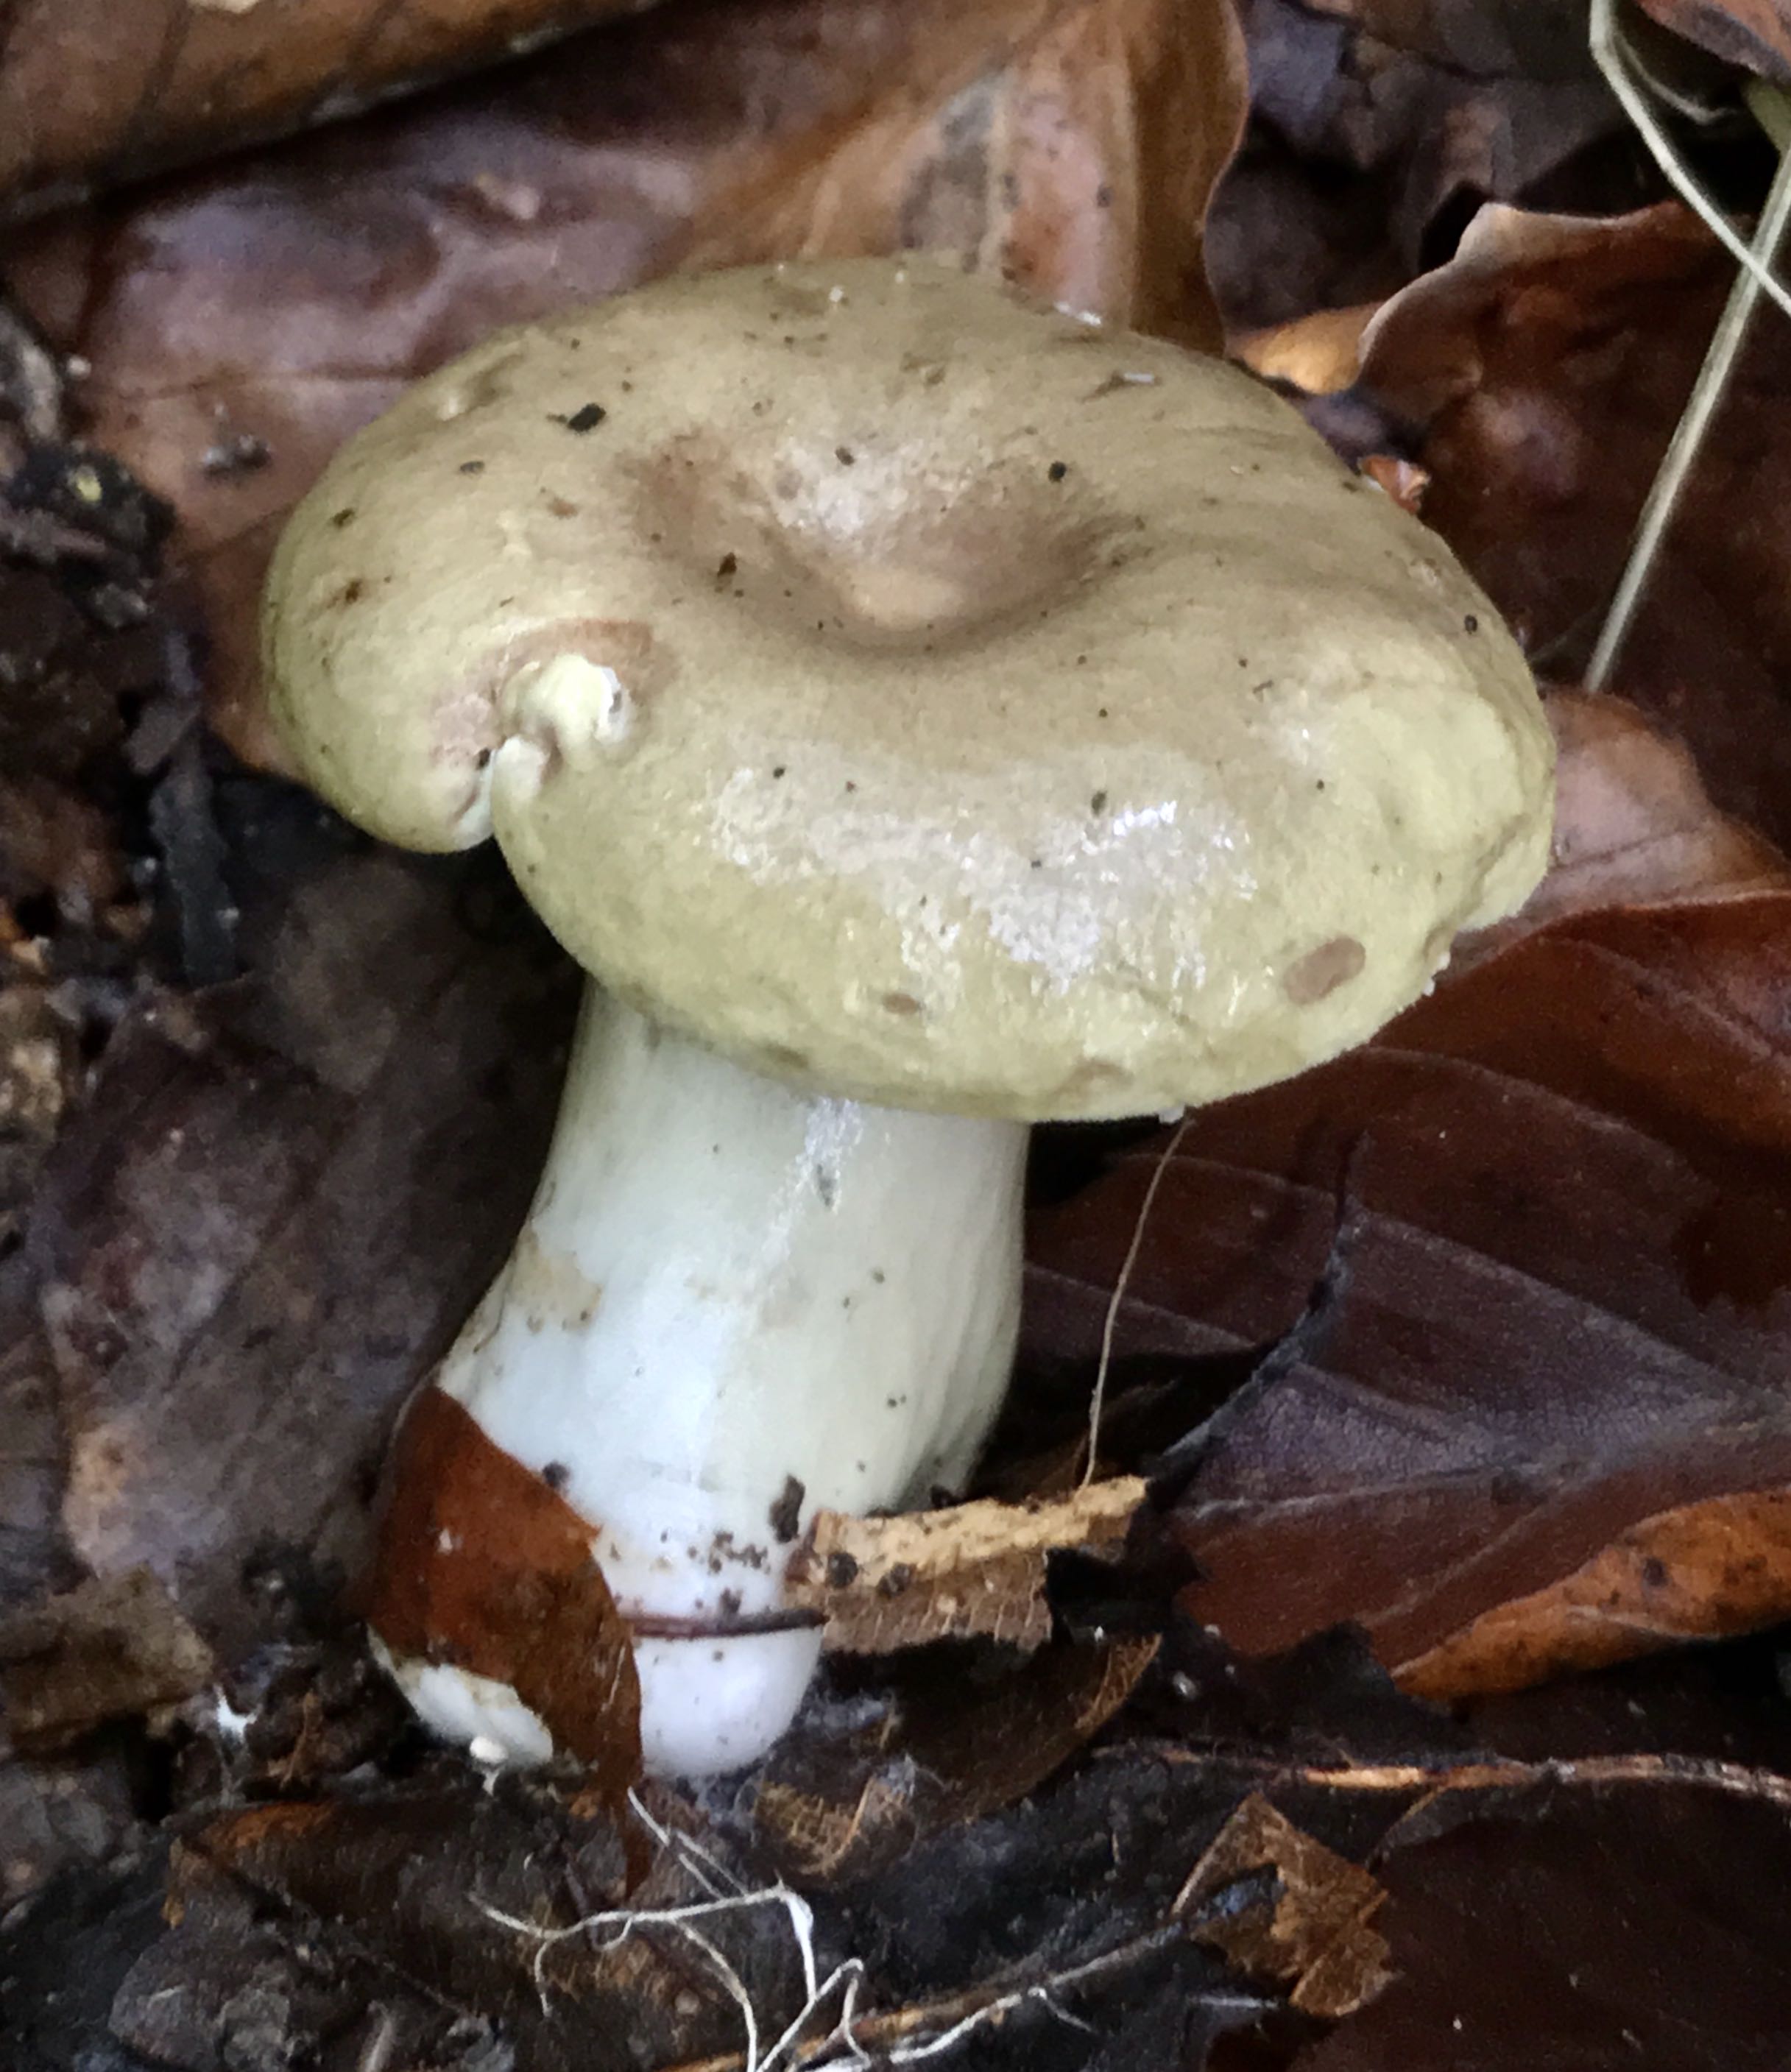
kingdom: Fungi
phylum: Basidiomycota
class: Agaricomycetes
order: Russulales
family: Russulaceae
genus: Lactarius
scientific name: Lactarius blennius
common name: dråbeplettet mælkehat
